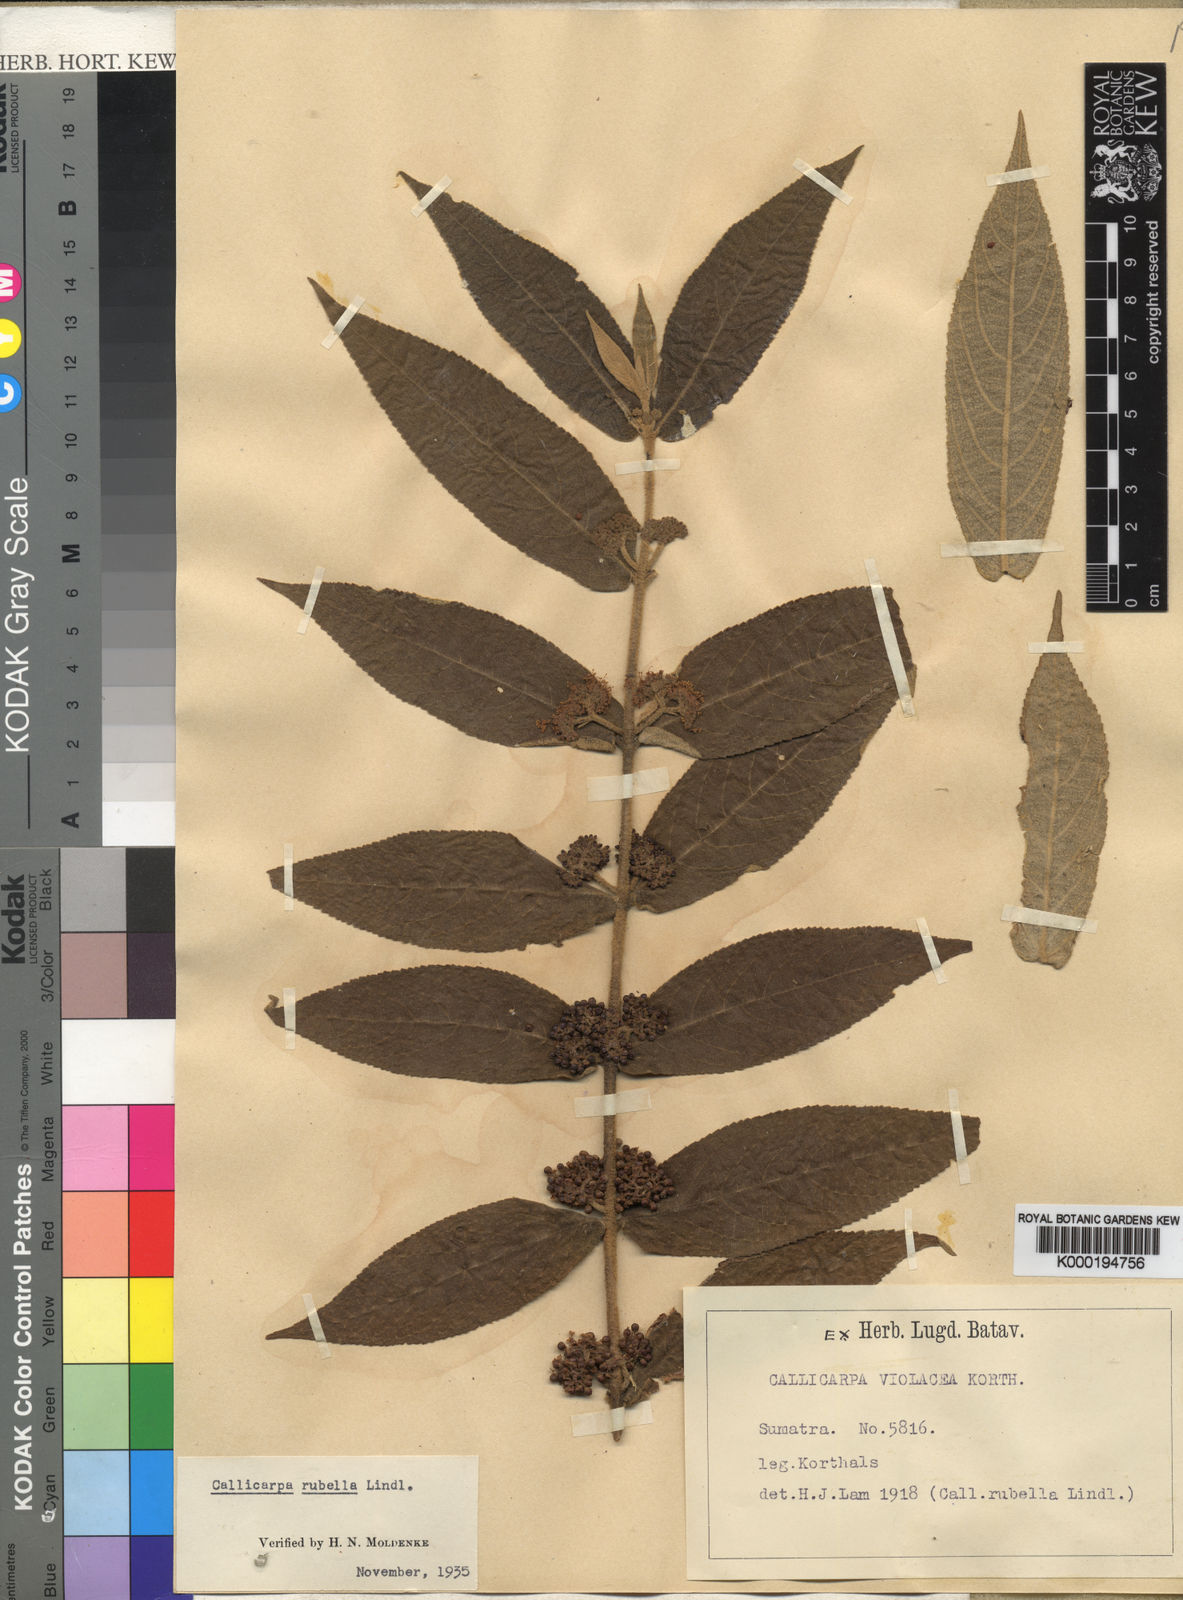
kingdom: Plantae
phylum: Tracheophyta
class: Magnoliopsida
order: Lamiales
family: Lamiaceae
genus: Callicarpa
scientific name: Callicarpa rubella
